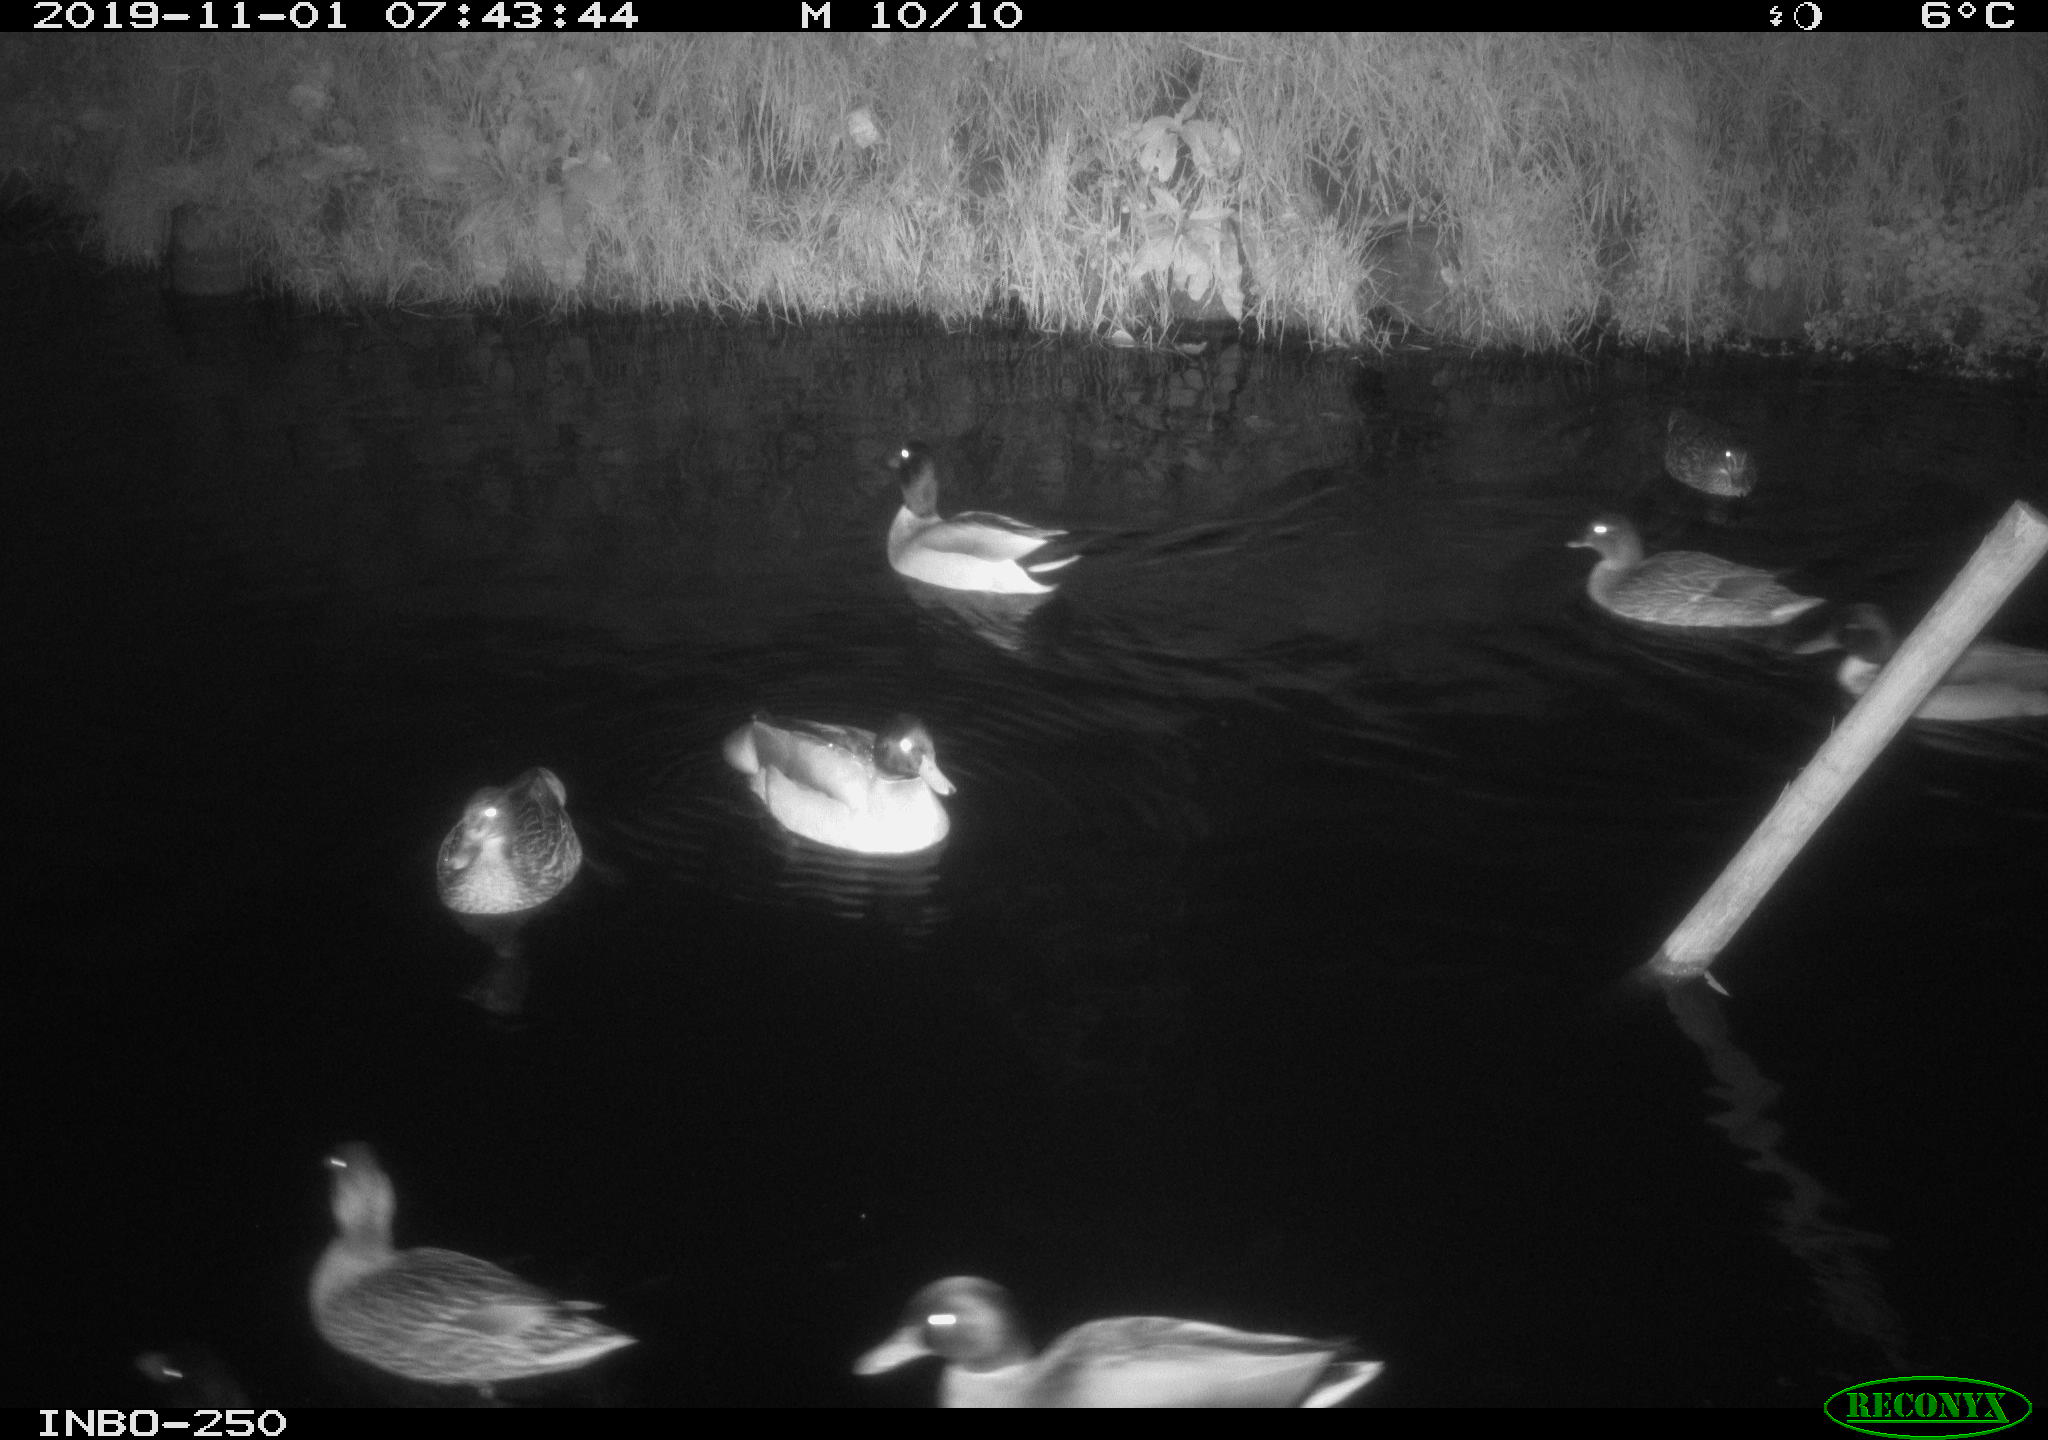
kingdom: Animalia
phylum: Chordata
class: Aves
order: Anseriformes
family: Anatidae
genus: Anas
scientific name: Anas platyrhynchos
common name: Mallard
